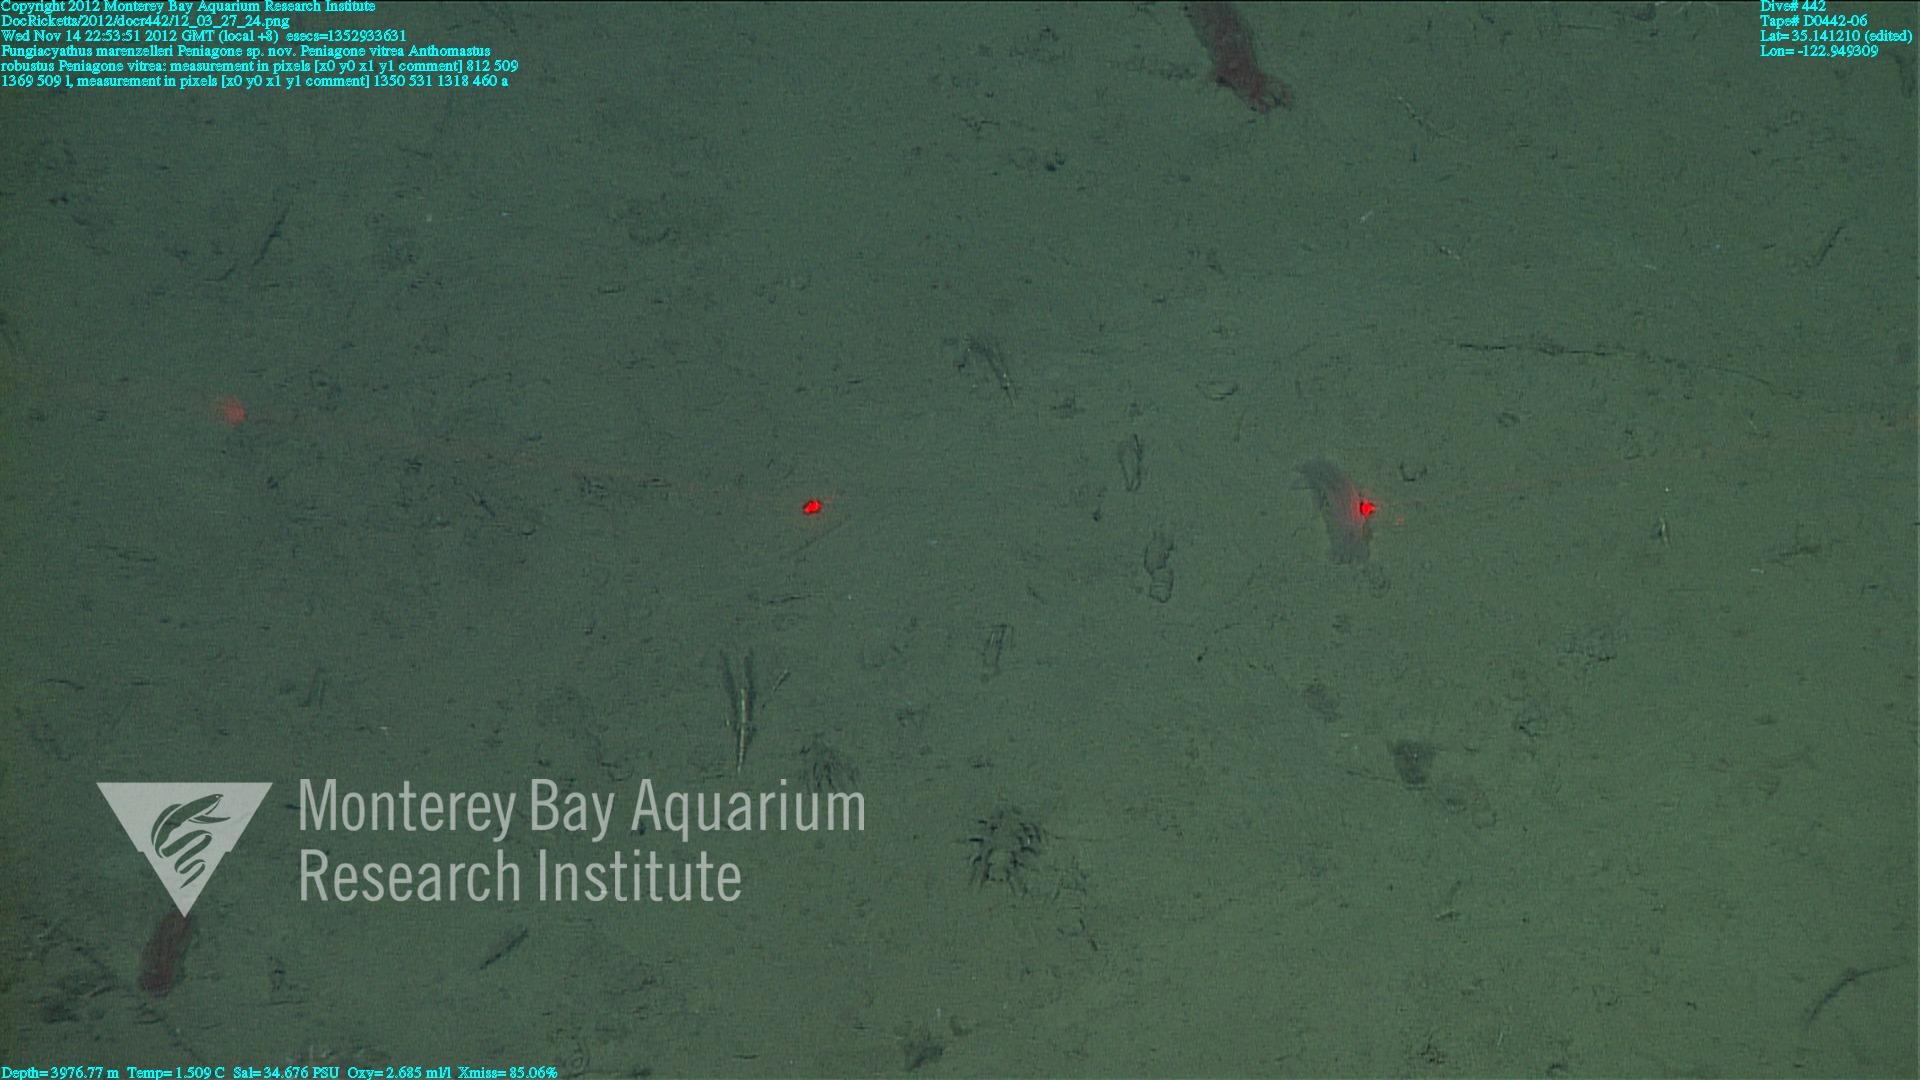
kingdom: Animalia
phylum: Cnidaria
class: Anthozoa
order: Scleractinia
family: Fungiacyathidae
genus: Fungiacyathus
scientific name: Fungiacyathus marenzelleri
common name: Marenzeller's stony coral
